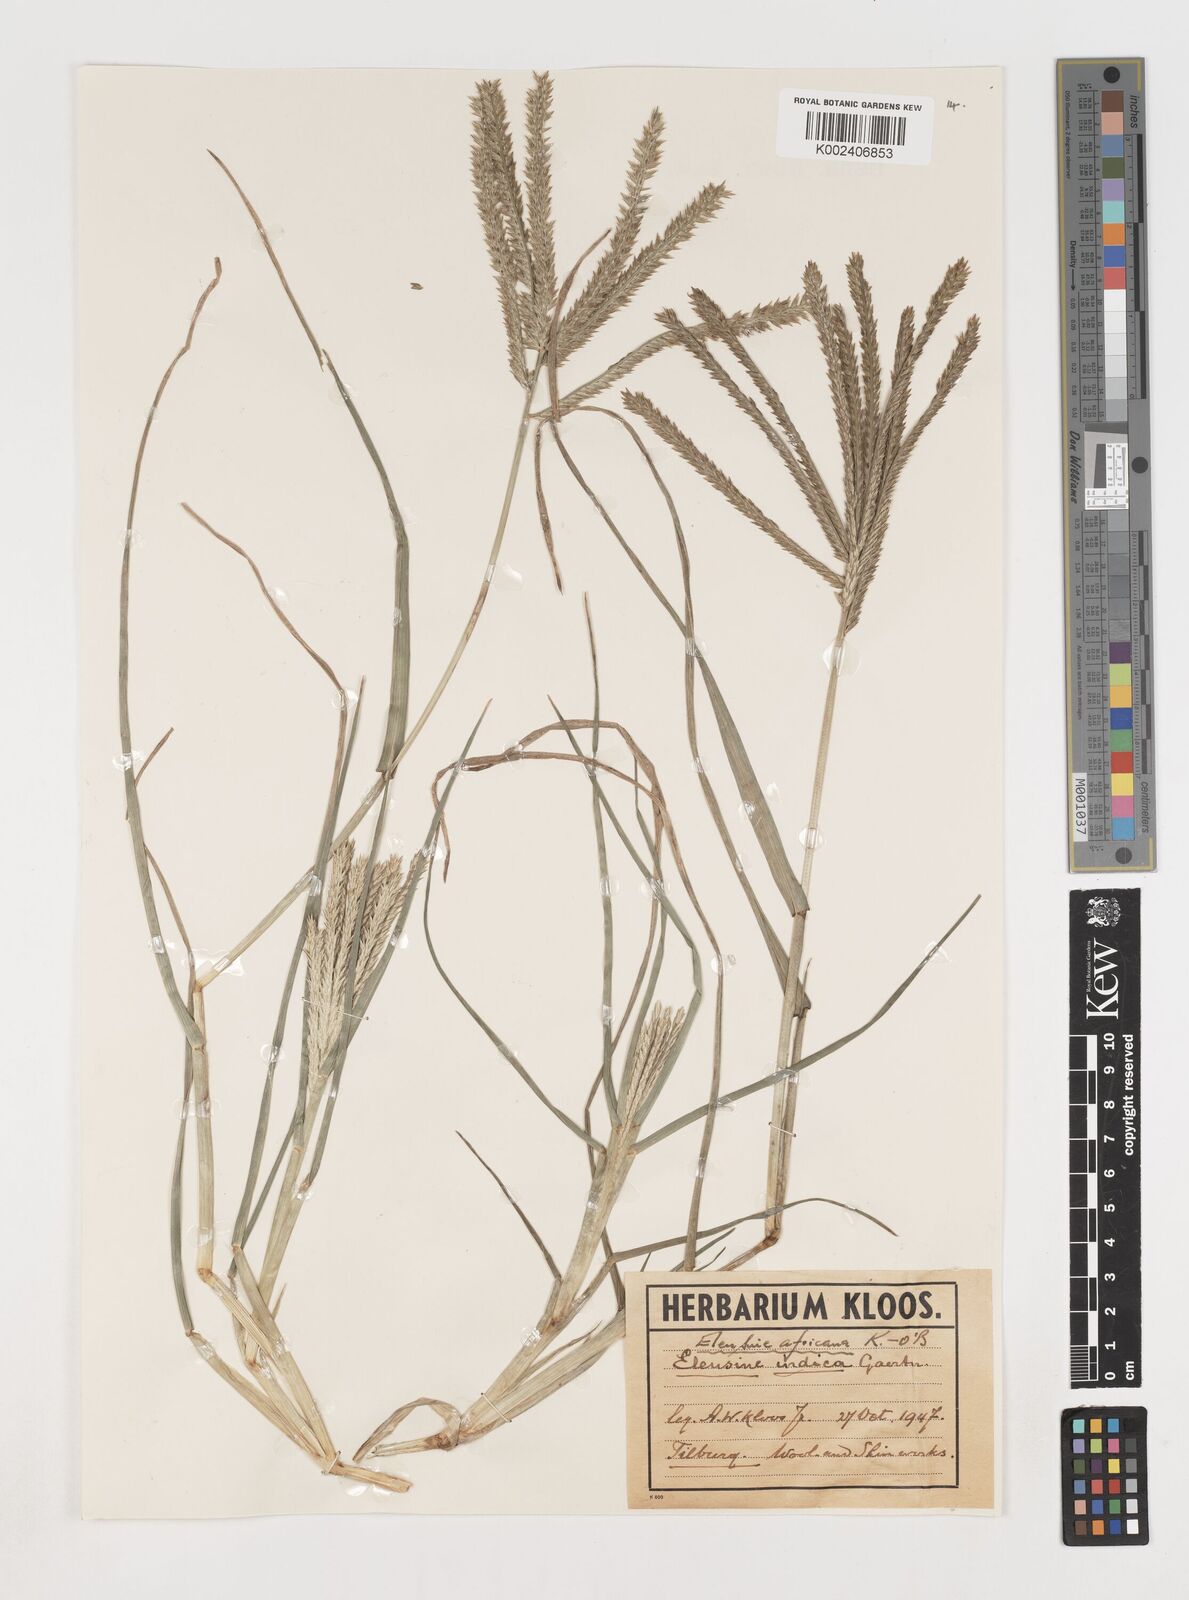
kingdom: Plantae
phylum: Tracheophyta
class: Liliopsida
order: Poales
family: Poaceae
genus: Eleusine
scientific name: Eleusine africana
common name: Wild african finger millet
